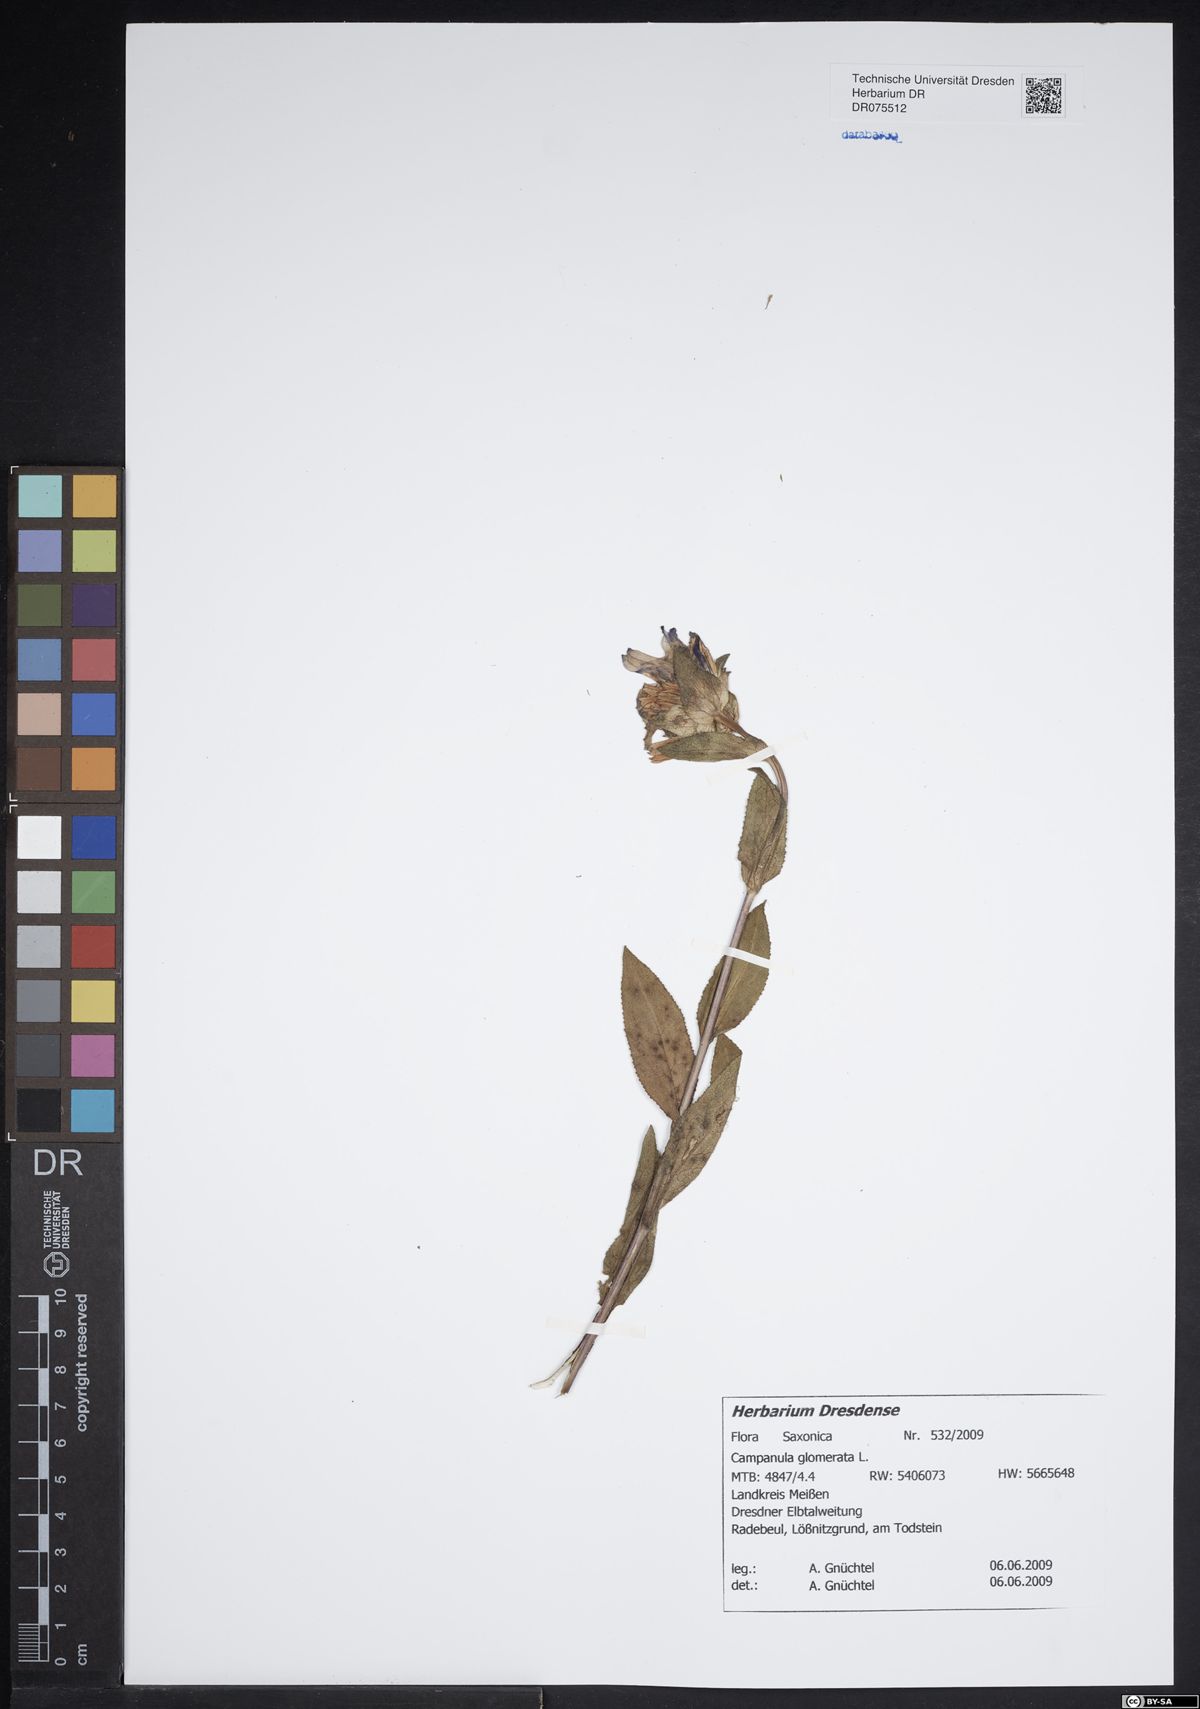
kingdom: Plantae
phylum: Tracheophyta
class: Magnoliopsida
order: Asterales
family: Campanulaceae
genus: Campanula
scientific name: Campanula glomerata
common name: Clustered bellflower
